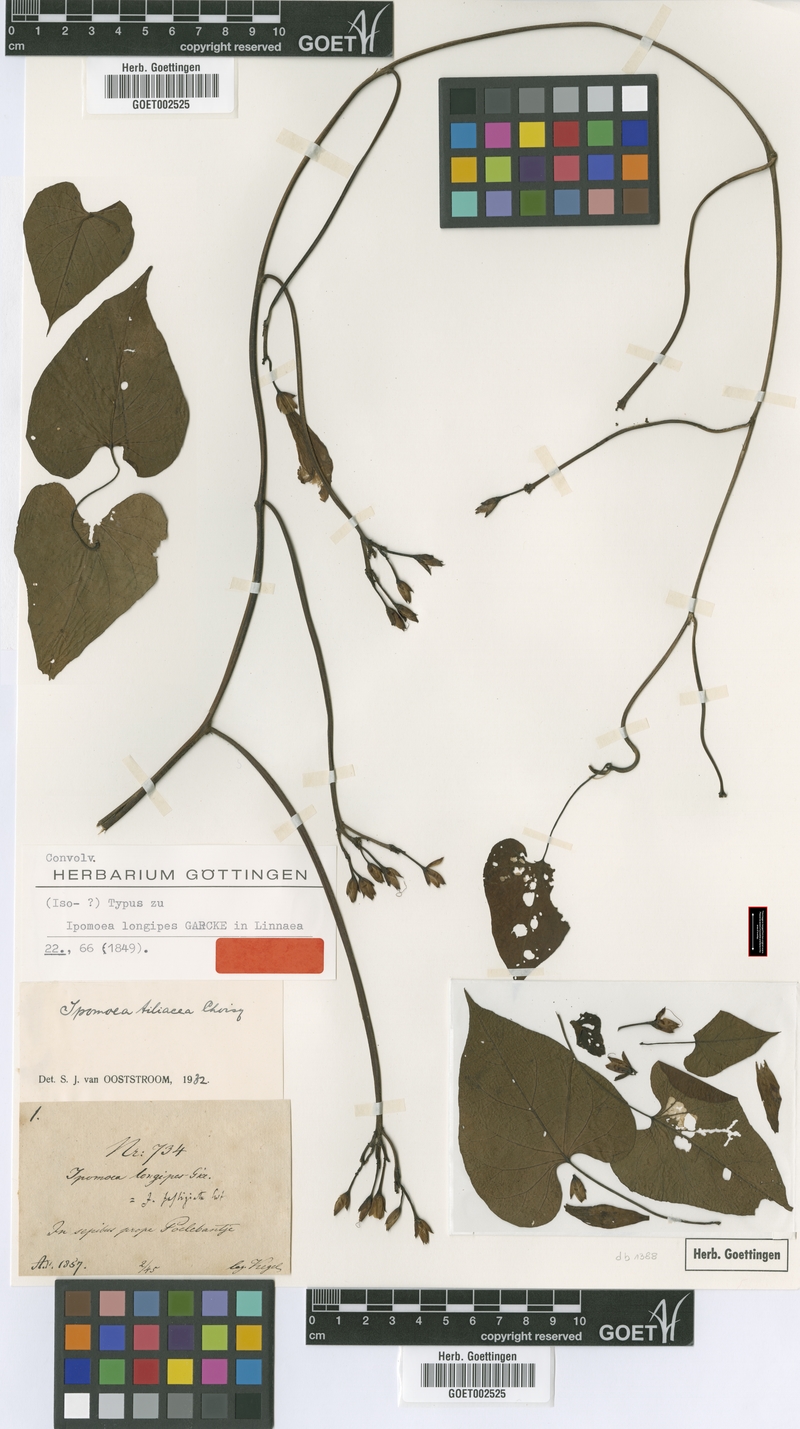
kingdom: Plantae
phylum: Tracheophyta
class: Magnoliopsida
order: Solanales
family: Convolvulaceae
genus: Ipomoea
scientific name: Ipomoea tiliacea
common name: Wild potato vine
